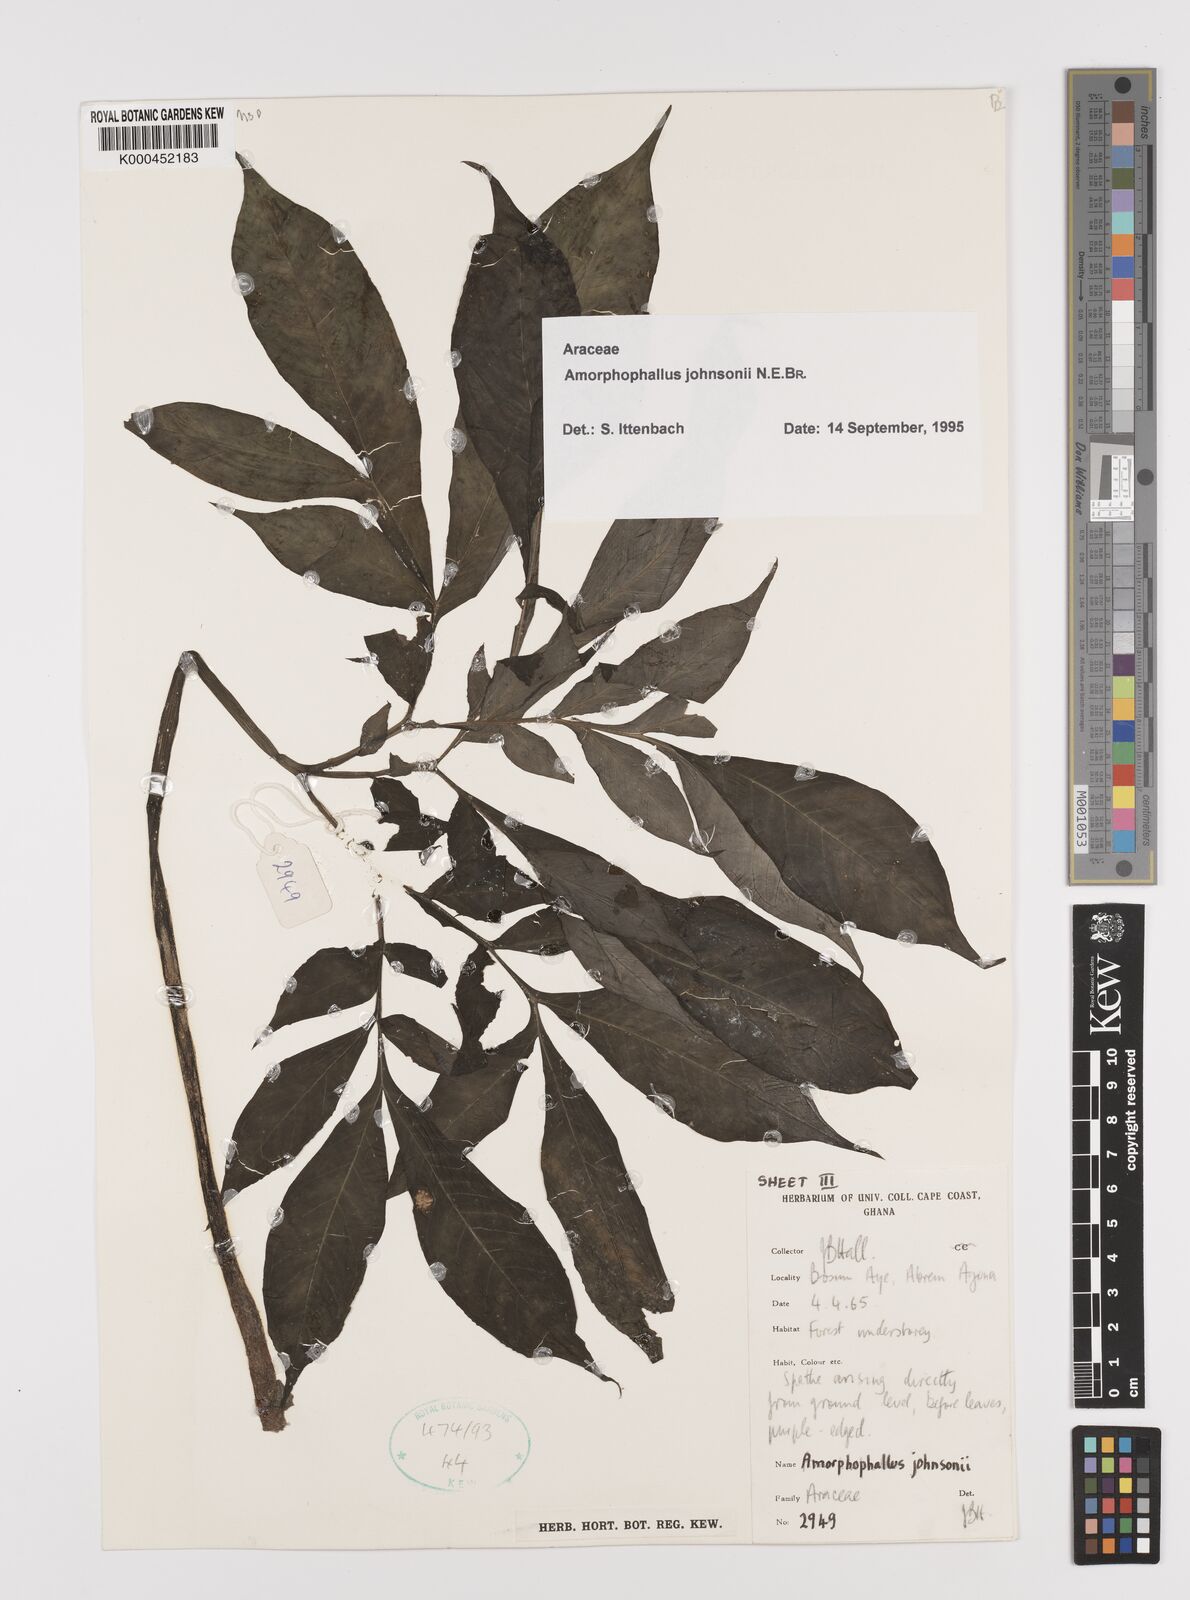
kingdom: Plantae
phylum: Tracheophyta
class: Liliopsida
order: Alismatales
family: Araceae
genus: Amorphophallus
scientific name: Amorphophallus johnsonii
